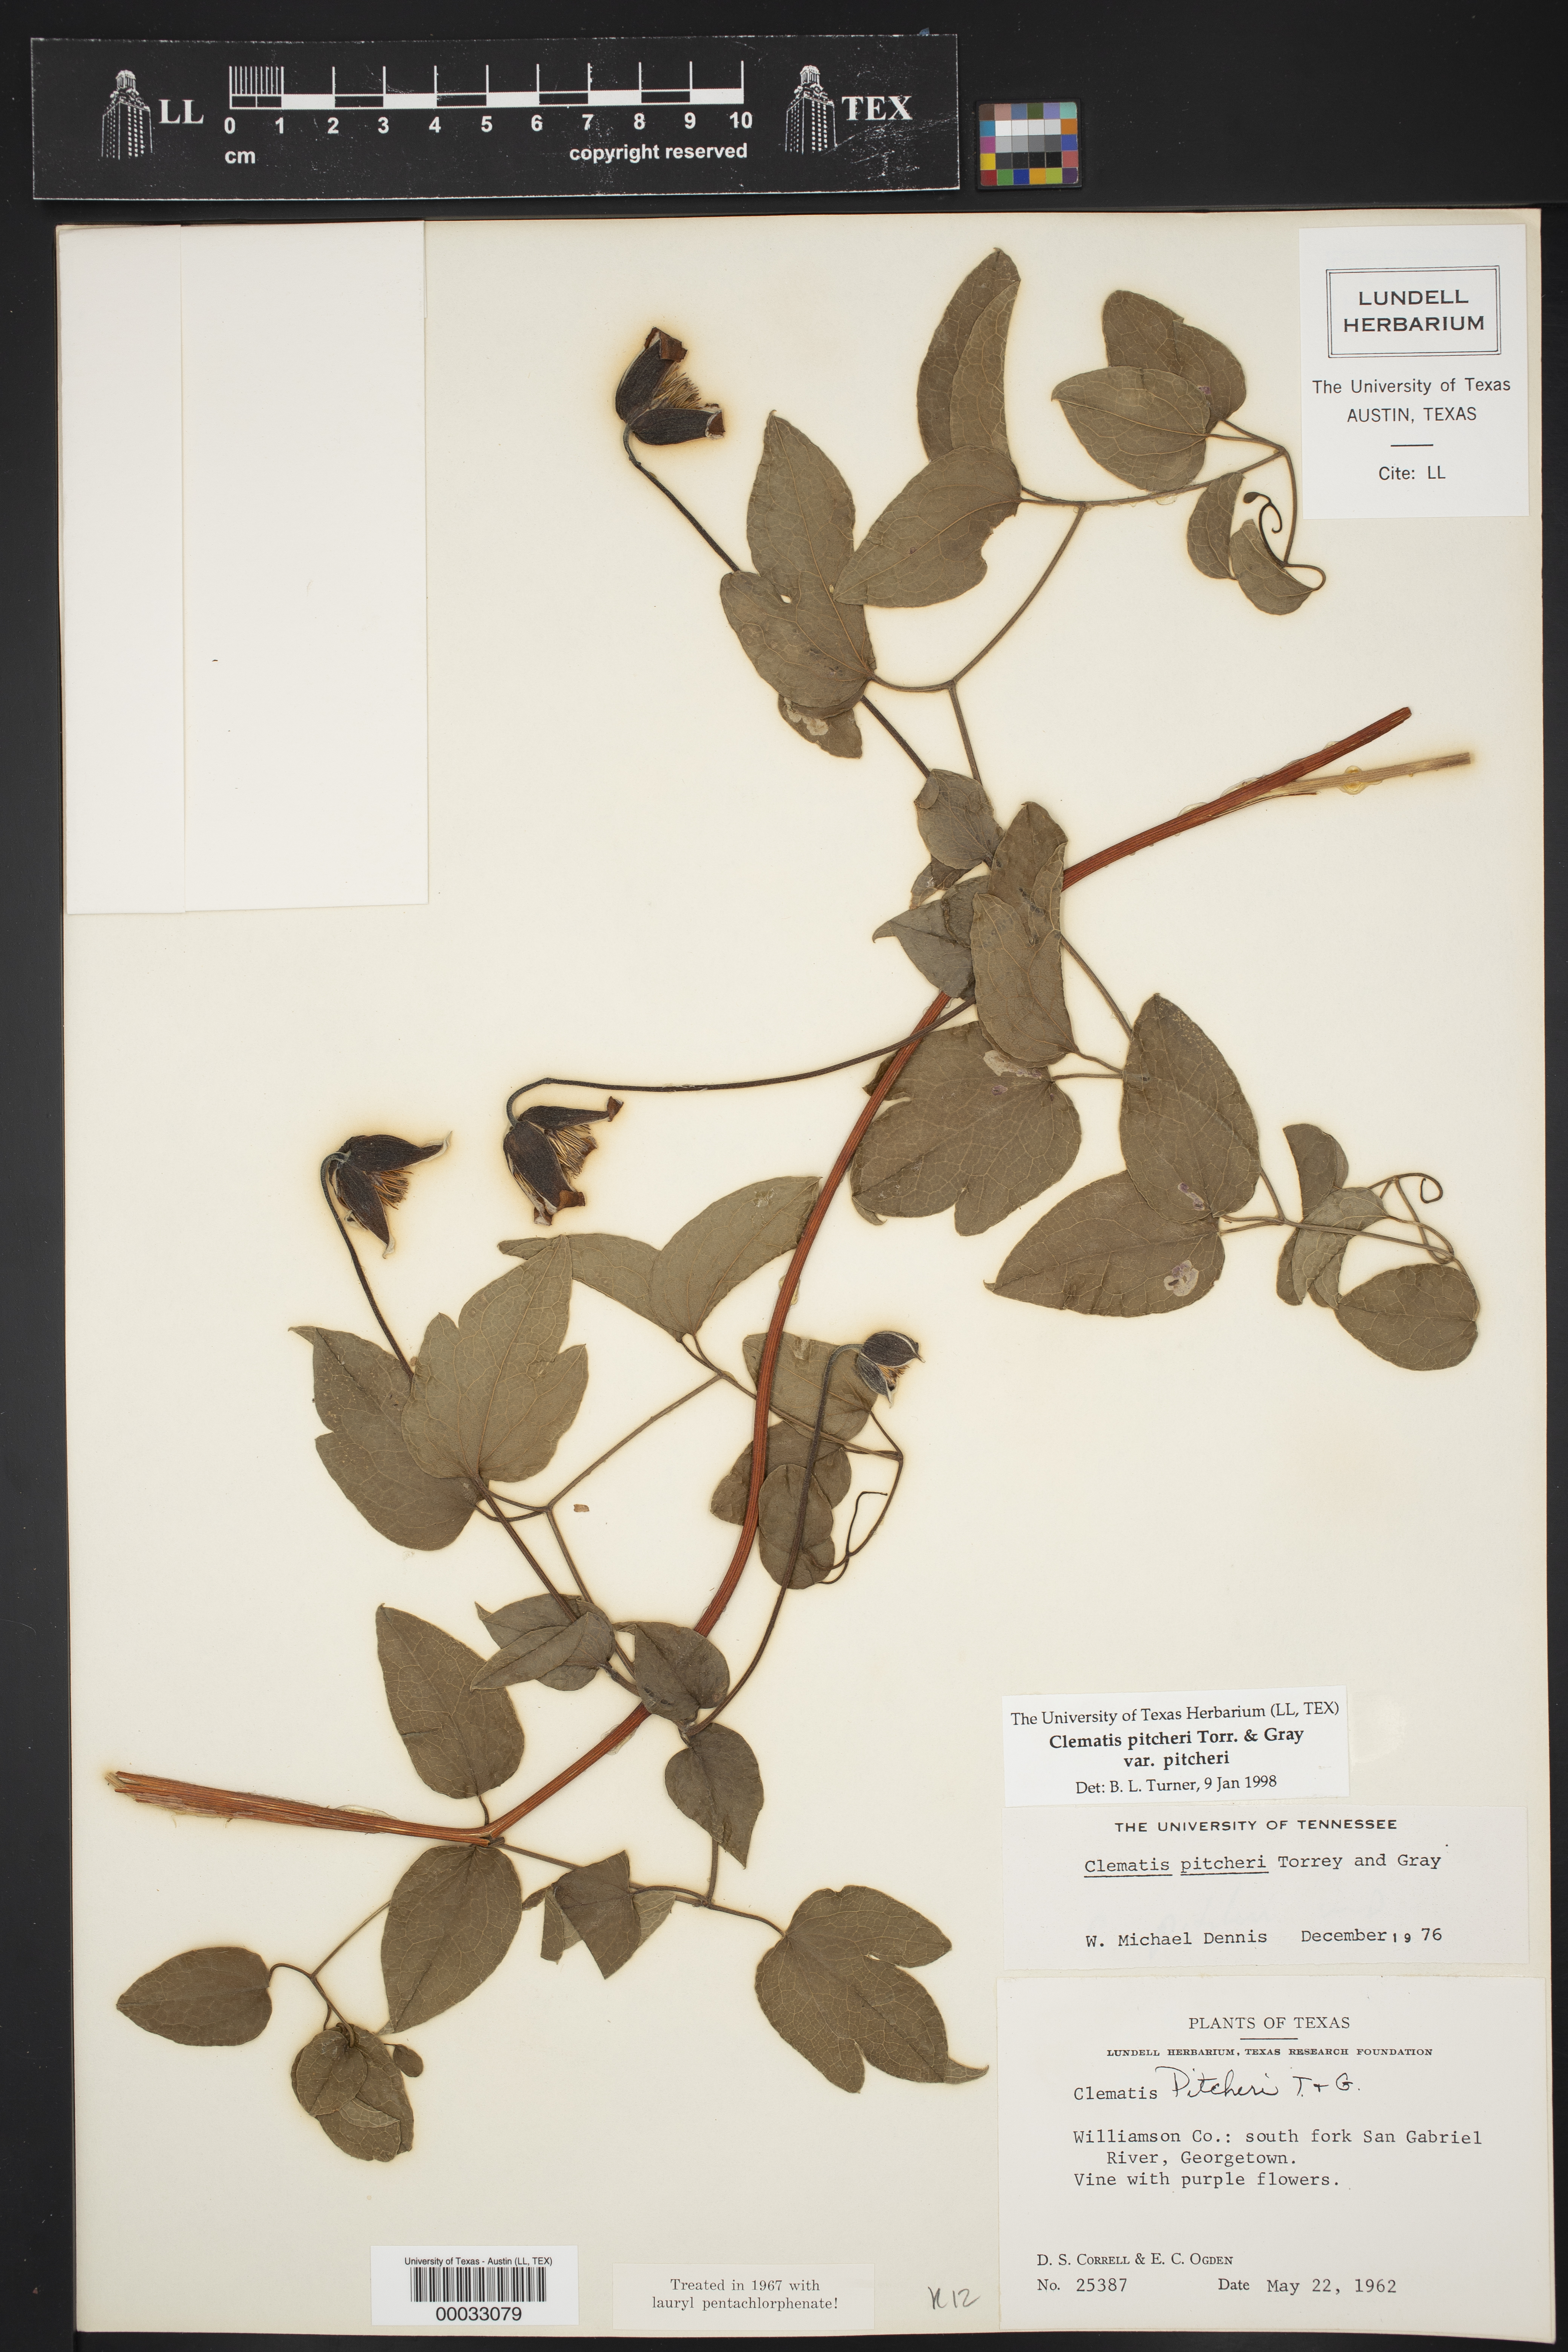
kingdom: Plantae
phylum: Tracheophyta
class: Magnoliopsida
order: Ranunculales
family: Ranunculaceae
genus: Clematis
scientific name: Clematis pitcheri
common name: Bellflower clematis
